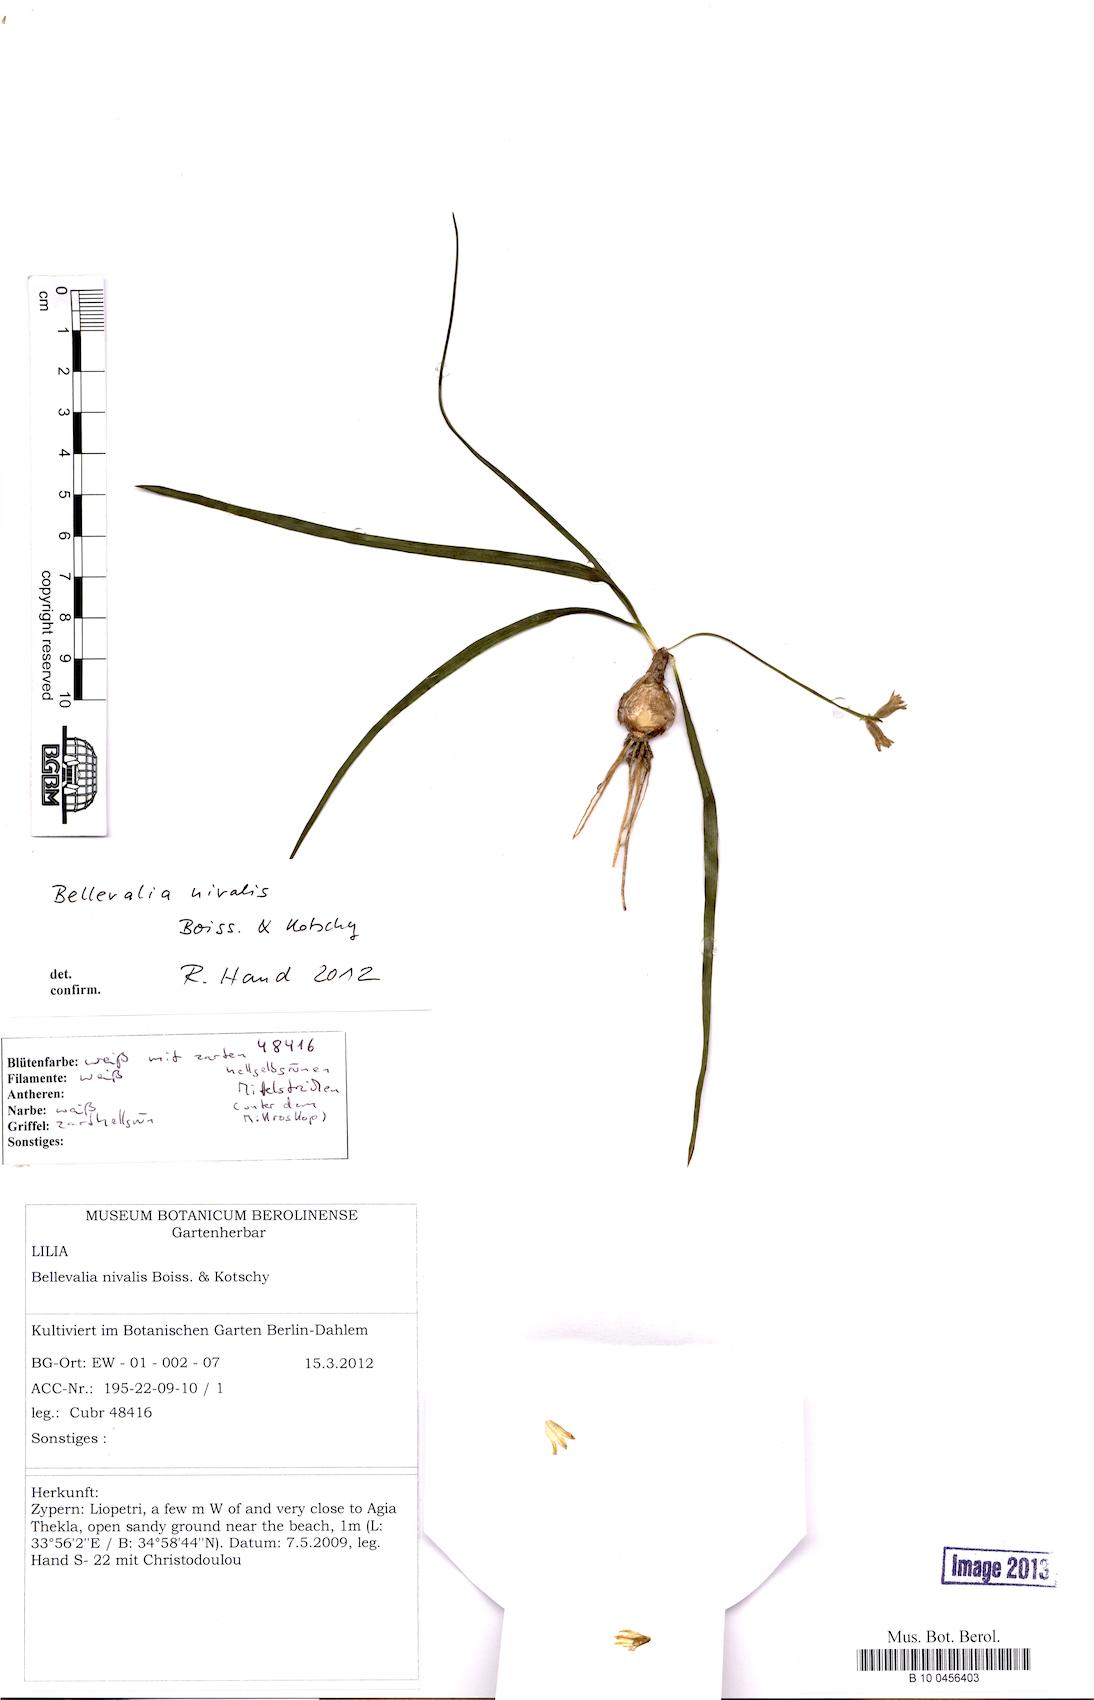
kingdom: Plantae
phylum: Tracheophyta
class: Liliopsida
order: Asparagales
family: Asparagaceae
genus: Bellevalia
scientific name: Bellevalia nivalis
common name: Snow bellevalia
